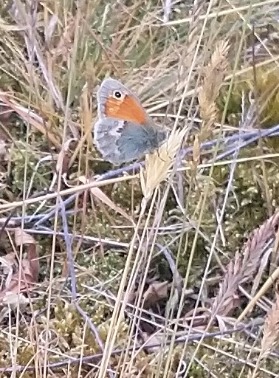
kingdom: Animalia
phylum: Arthropoda
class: Insecta
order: Lepidoptera
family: Nymphalidae
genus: Coenonympha
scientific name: Coenonympha pamphilus
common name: Okkergul randøje
